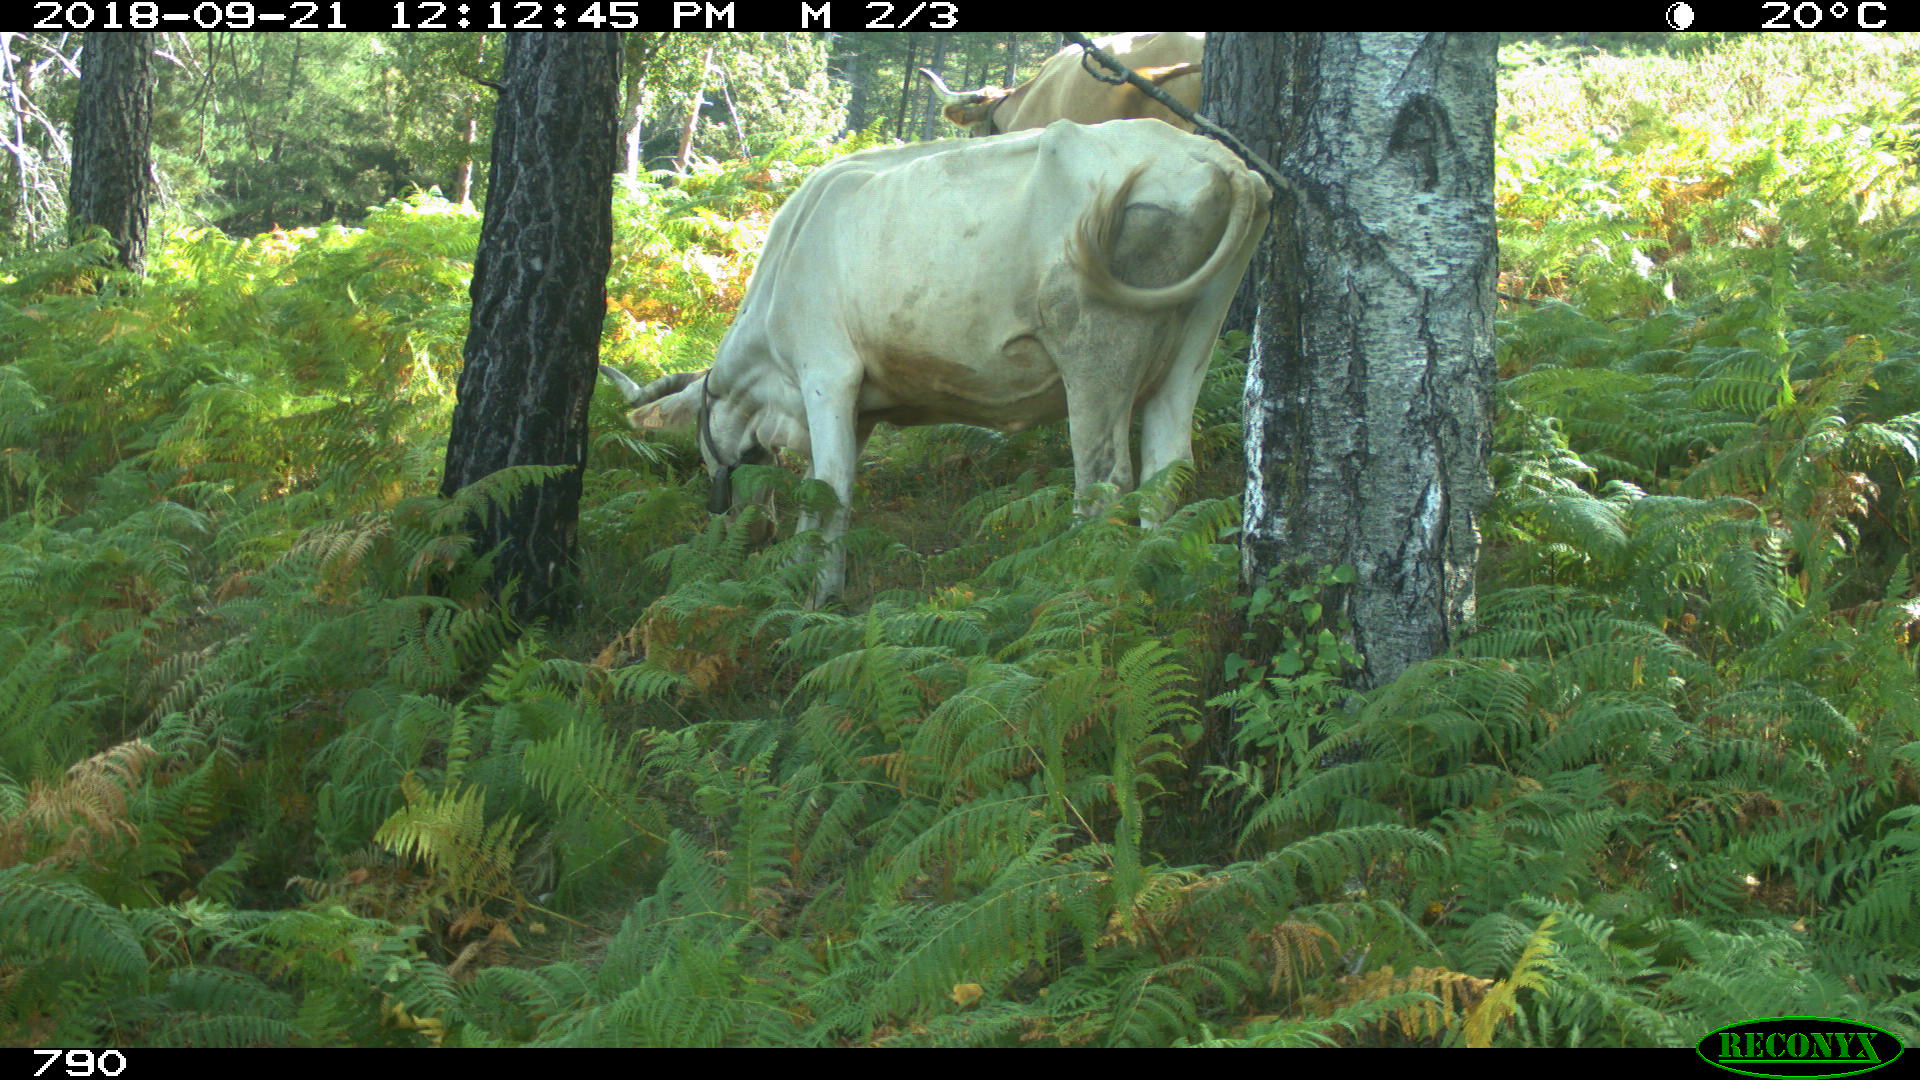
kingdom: Animalia
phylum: Chordata
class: Mammalia
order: Artiodactyla
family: Bovidae
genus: Bos
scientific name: Bos taurus
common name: Domesticated cattle
